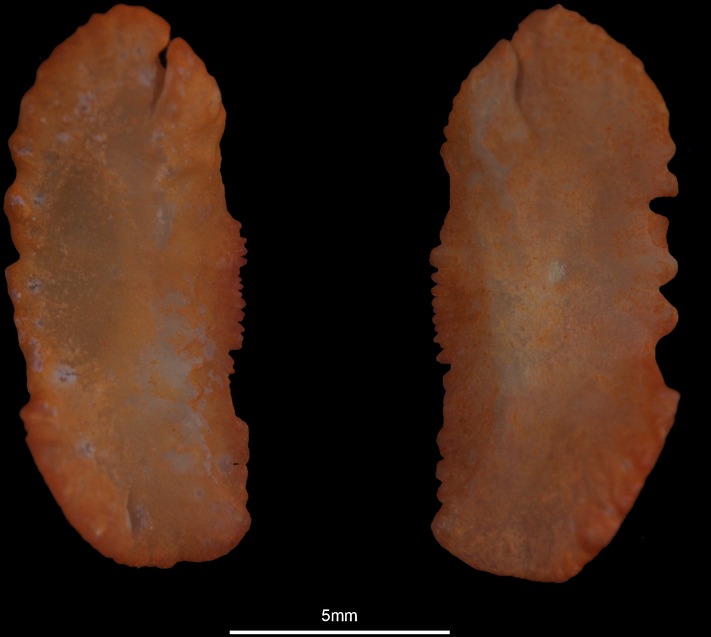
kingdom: Animalia
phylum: Chordata
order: Mugiliformes
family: Mugilidae
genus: Chelon
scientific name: Chelon ramada
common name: Thinlip grey mullet
